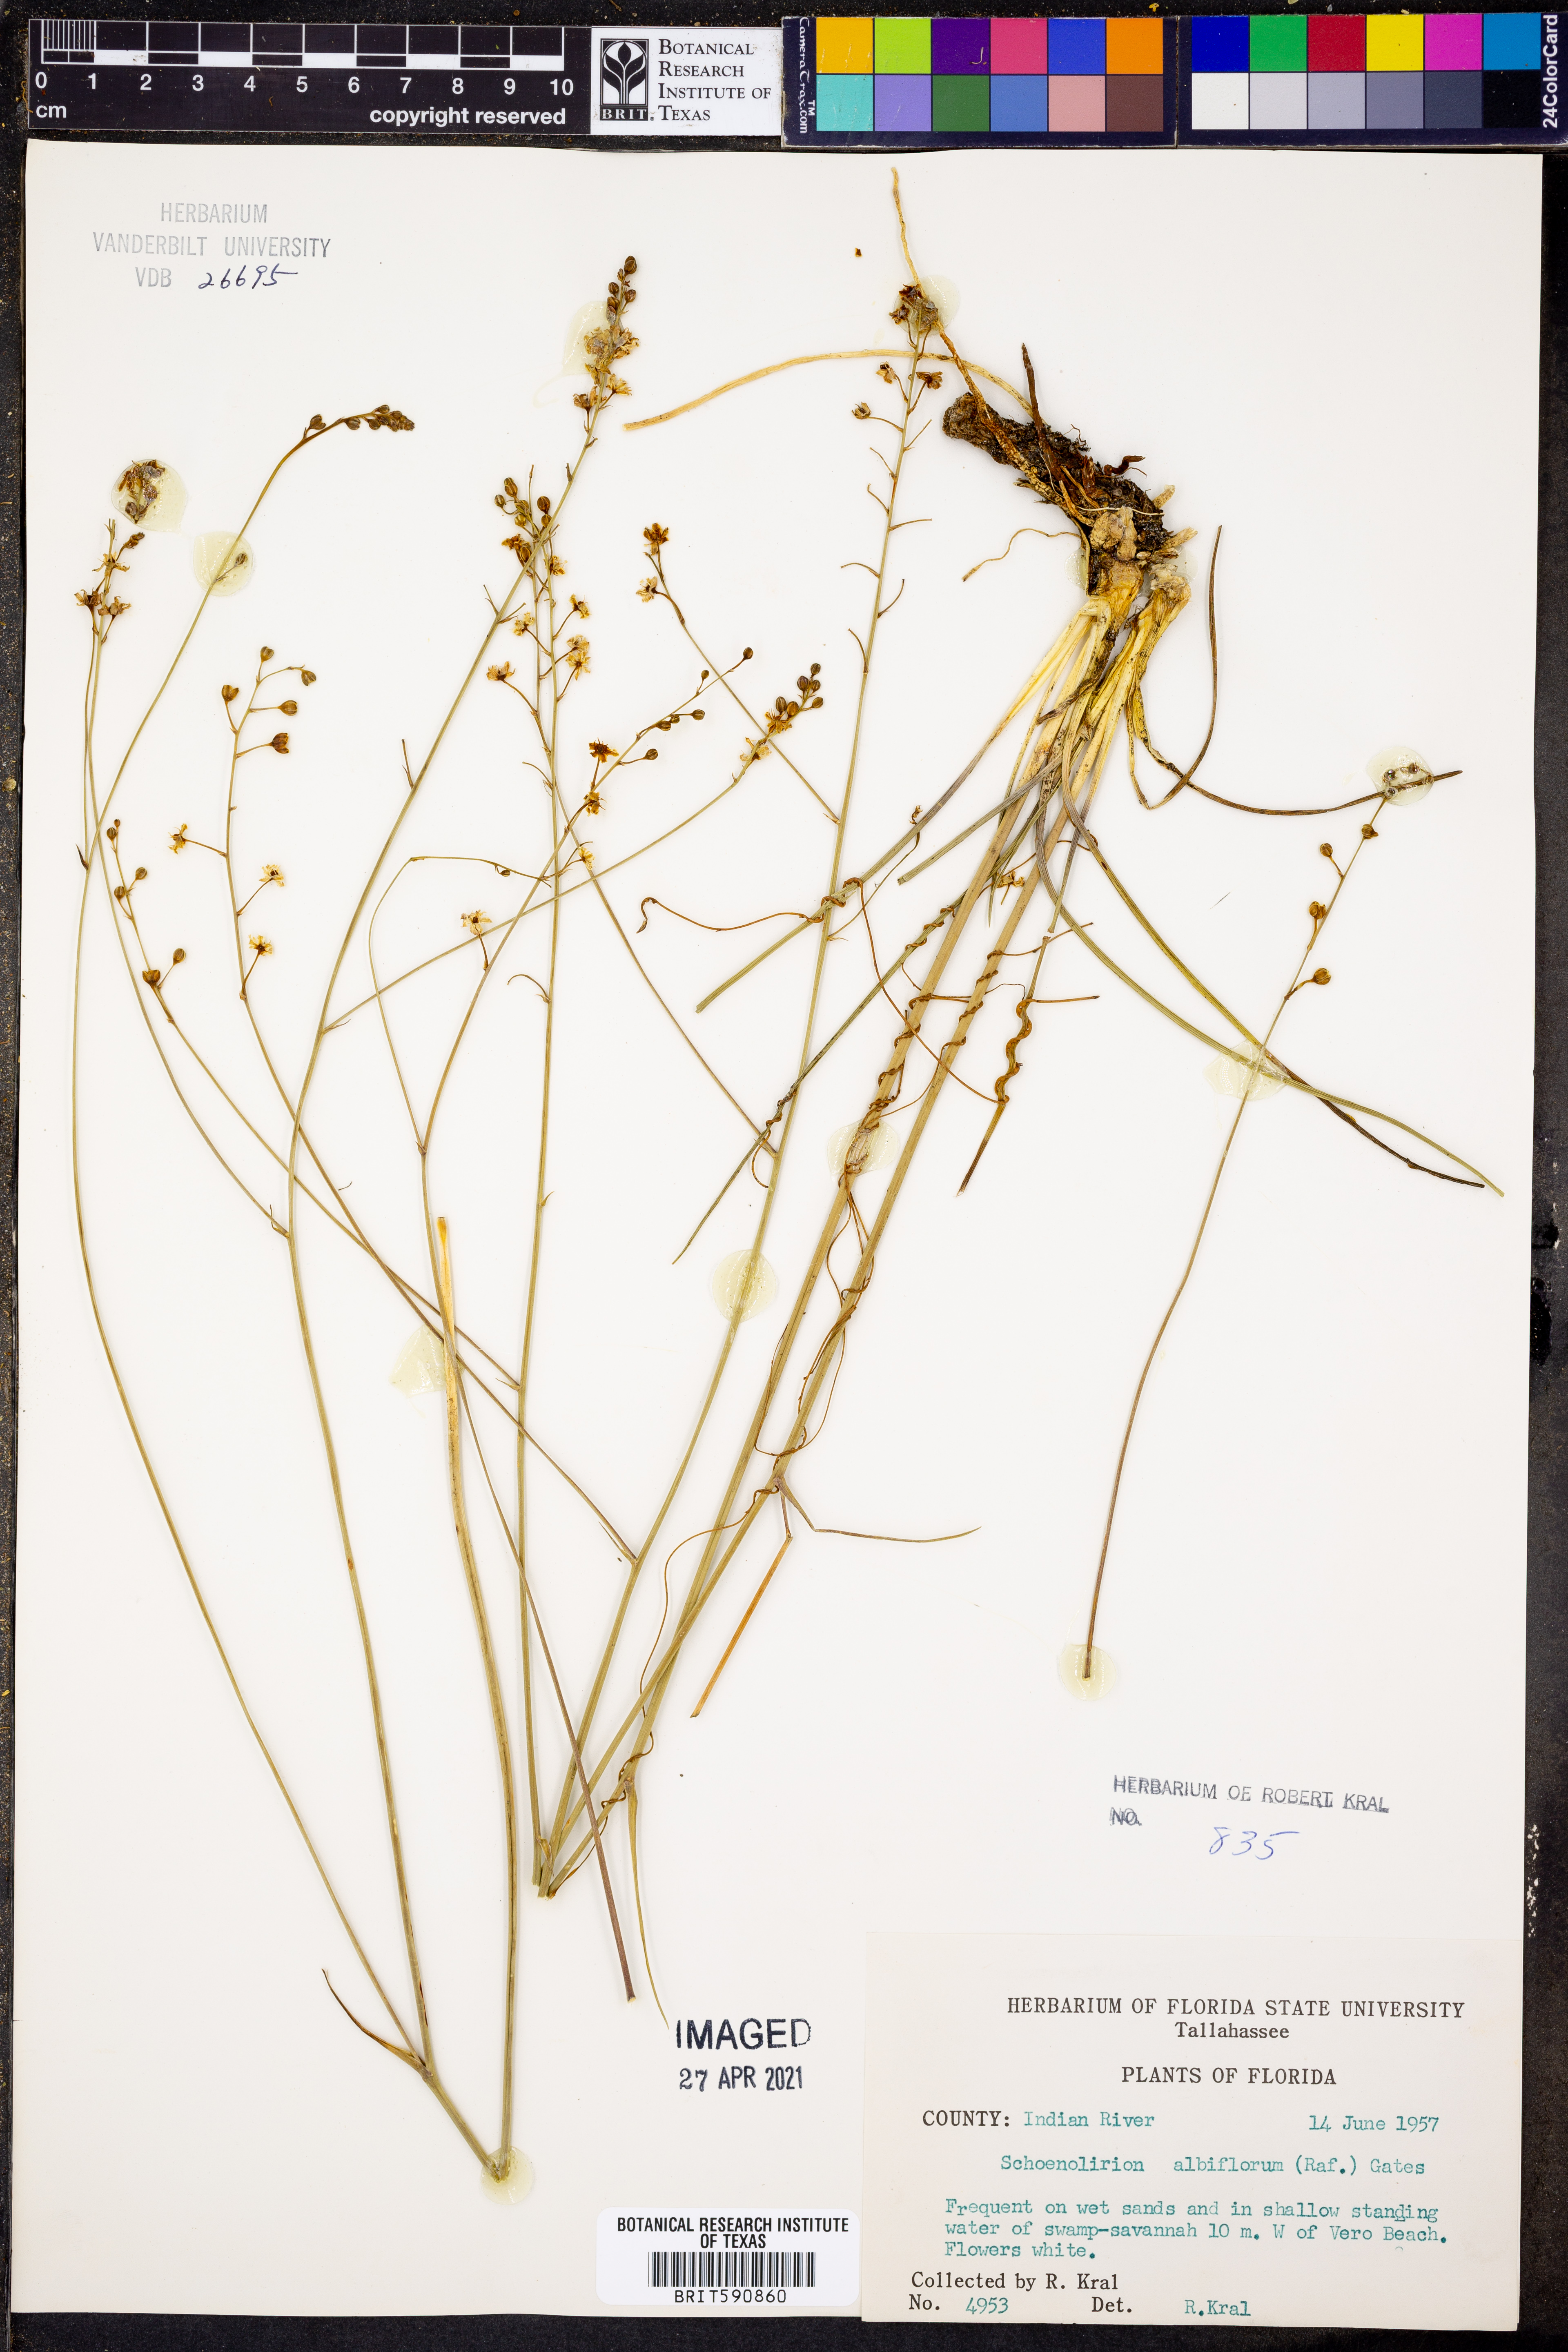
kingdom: Plantae
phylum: Tracheophyta
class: Liliopsida
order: Asparagales
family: Asparagaceae
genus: Schoenolirion
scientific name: Schoenolirion albiflorum
